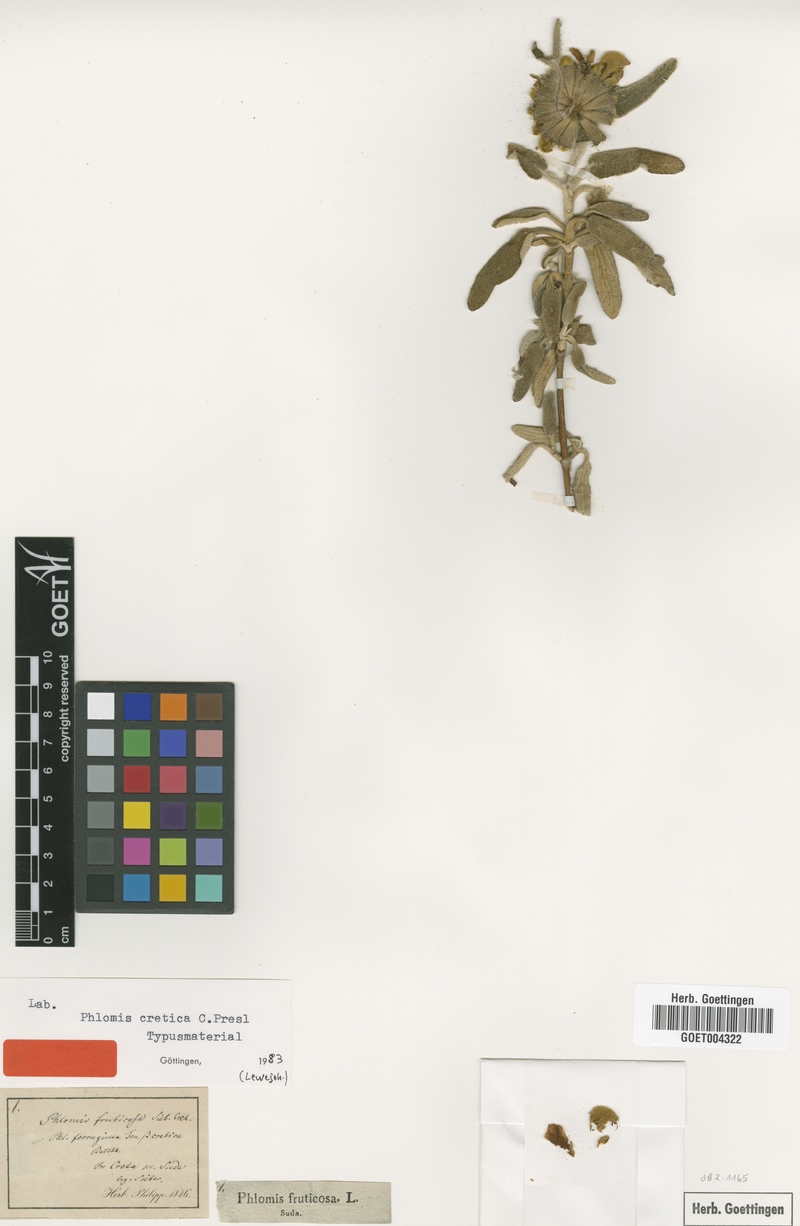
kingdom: Plantae
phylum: Tracheophyta
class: Magnoliopsida
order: Lamiales
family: Lamiaceae
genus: Phlomis
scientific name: Phlomis cretica
